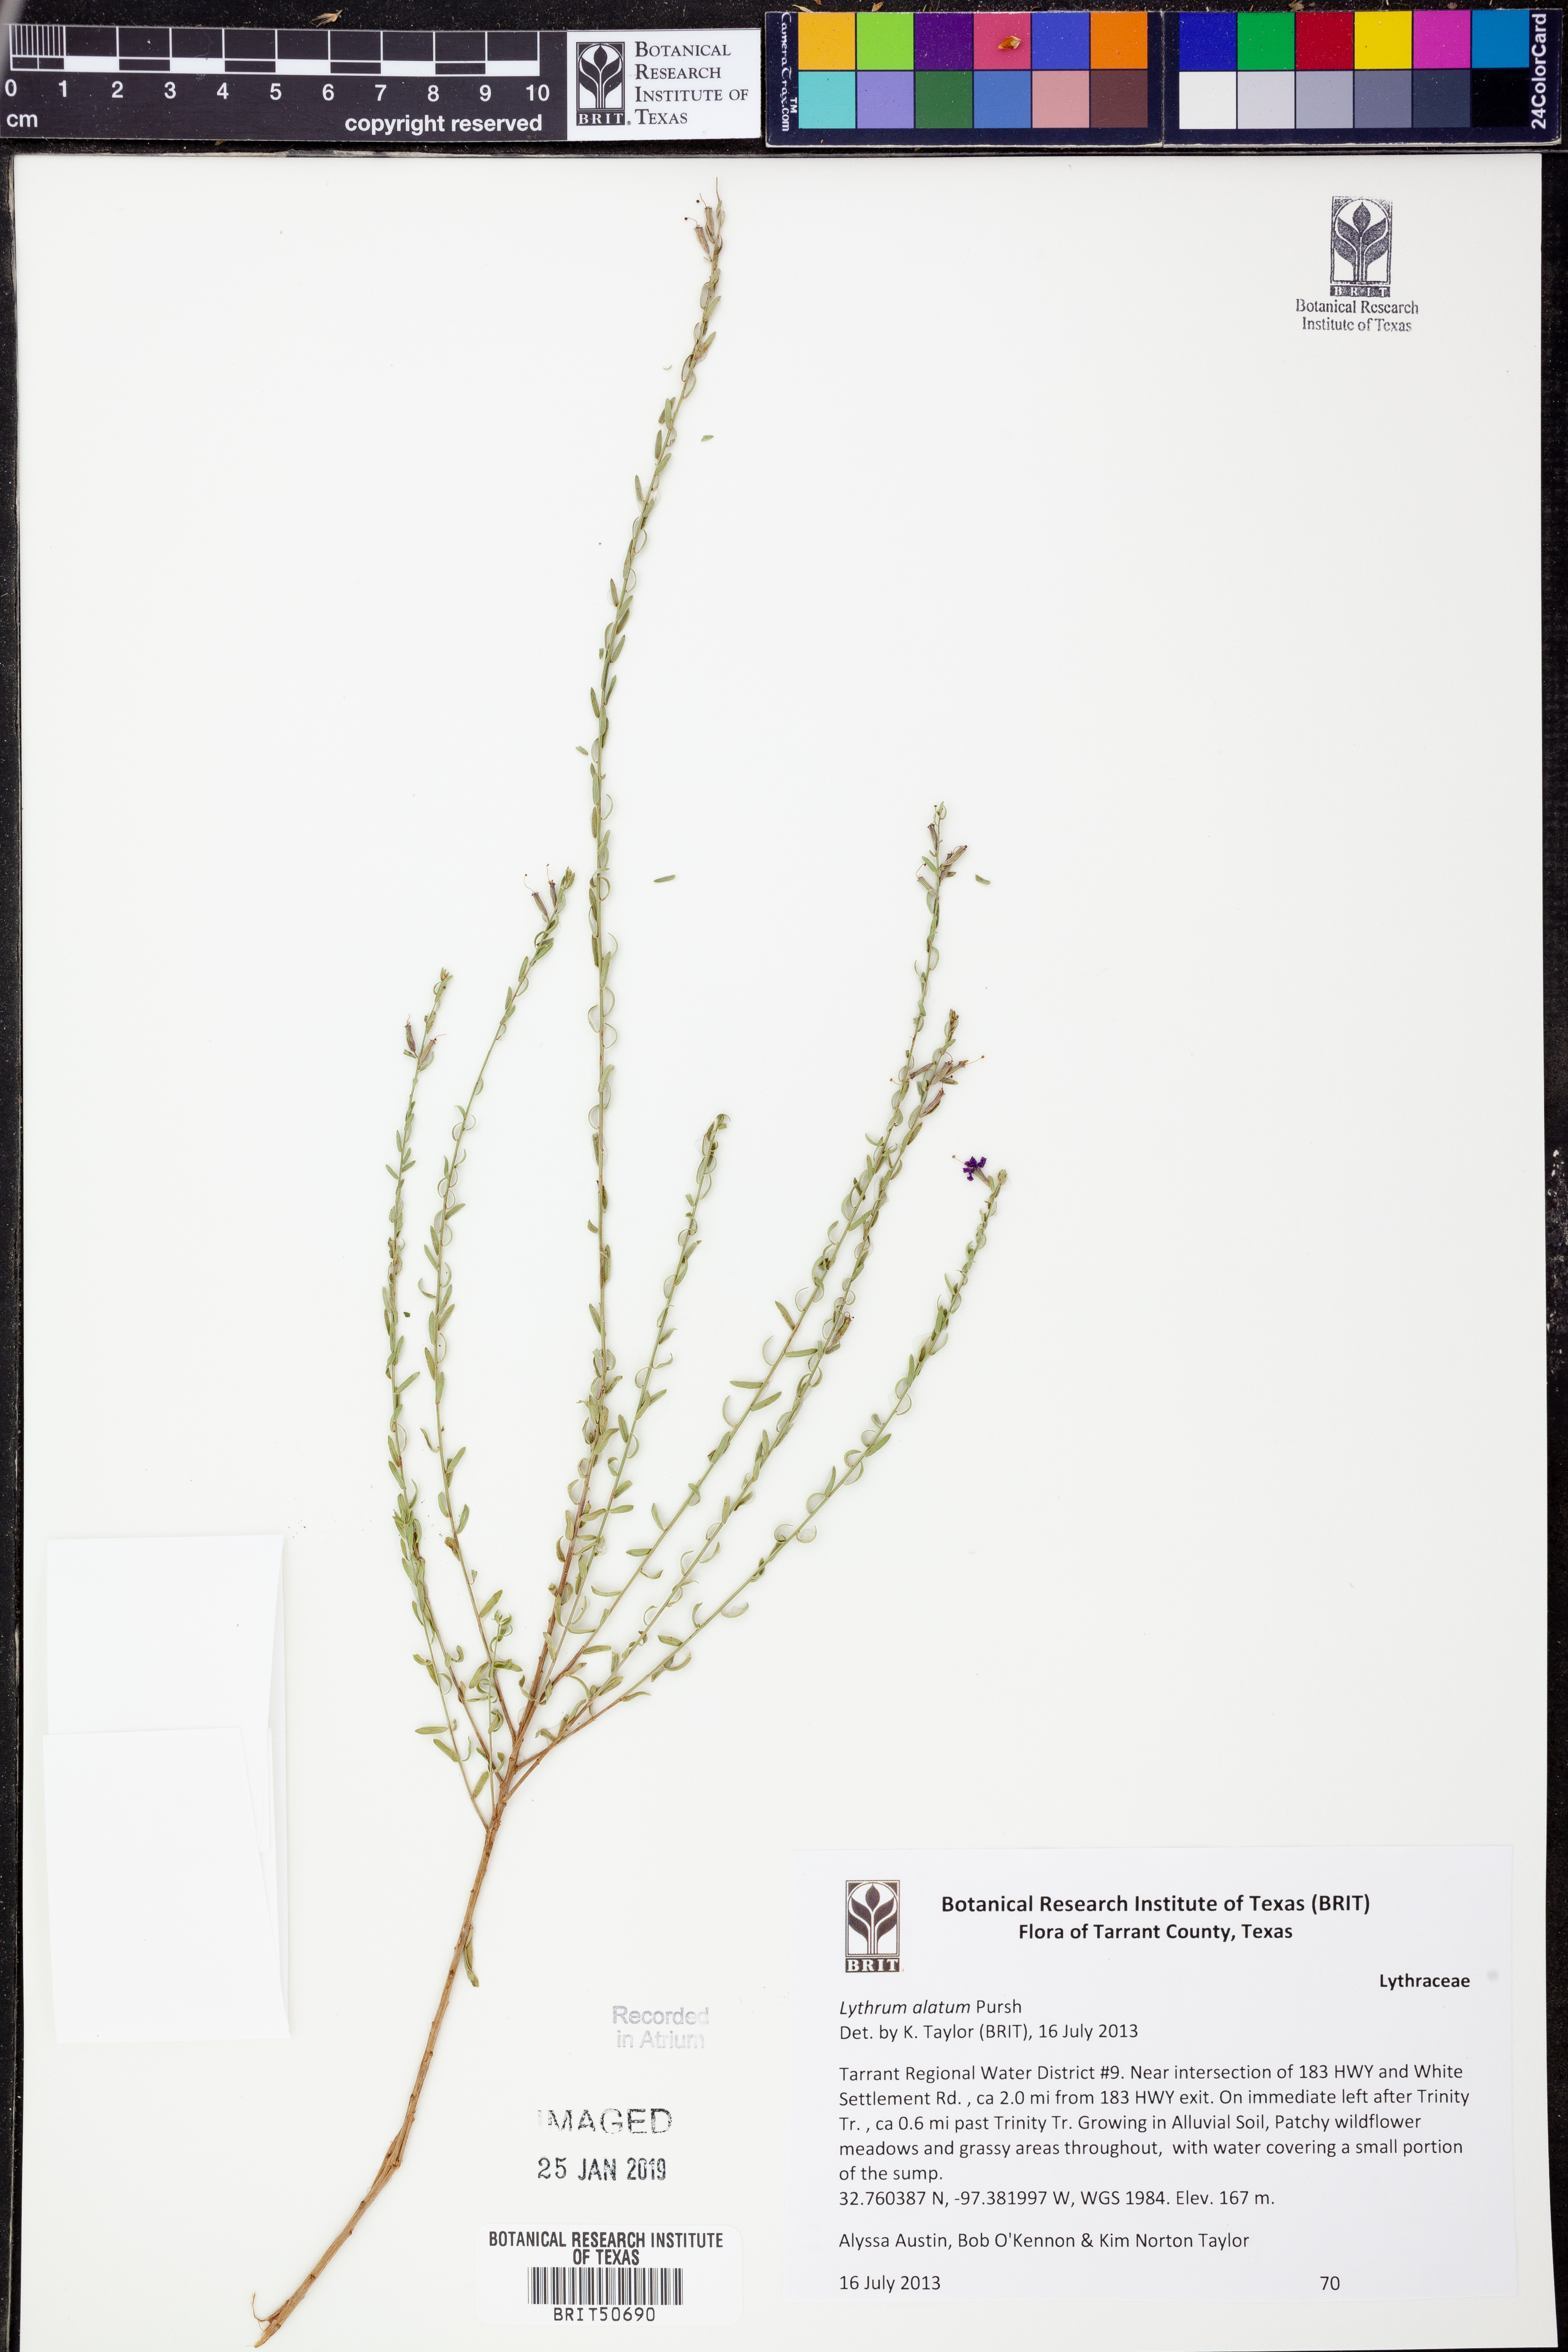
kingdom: Plantae
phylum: Tracheophyta
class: Magnoliopsida
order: Myrtales
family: Lythraceae
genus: Lythrum
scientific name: Lythrum alatum
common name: Winged loosestrife
